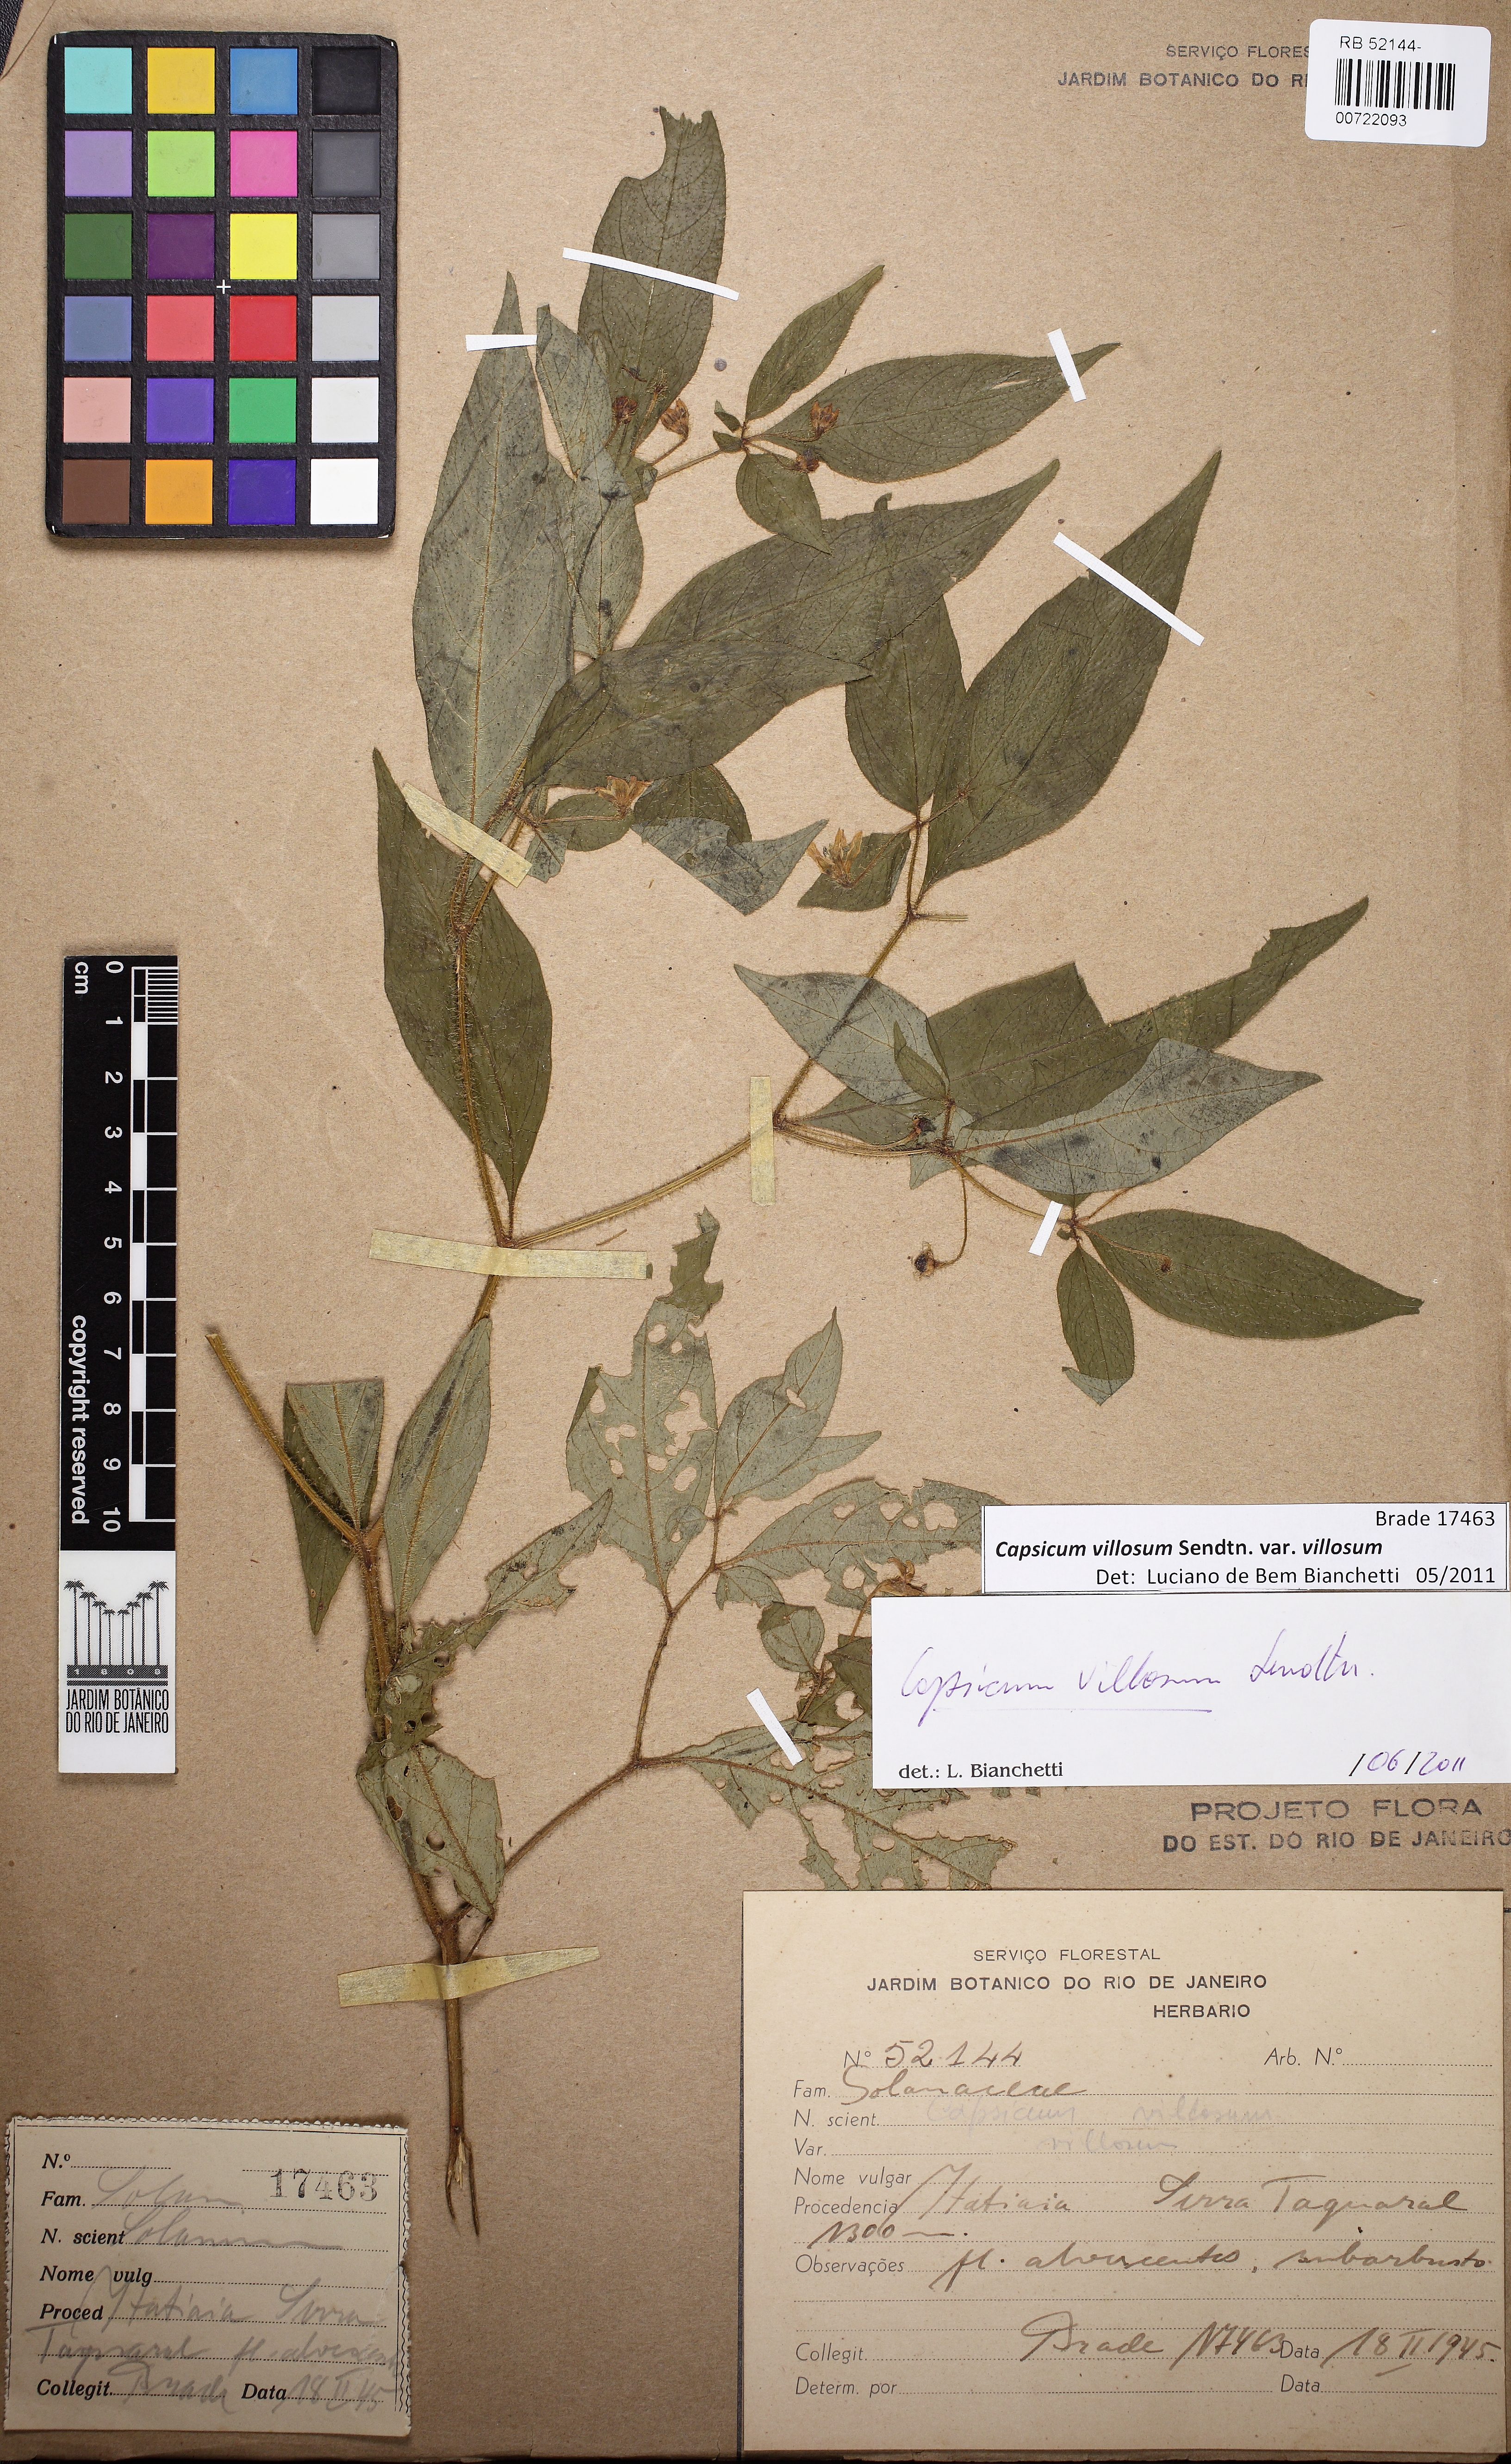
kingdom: Plantae
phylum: Tracheophyta
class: Magnoliopsida
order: Solanales
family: Solanaceae
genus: Capsicum
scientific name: Capsicum villosum
